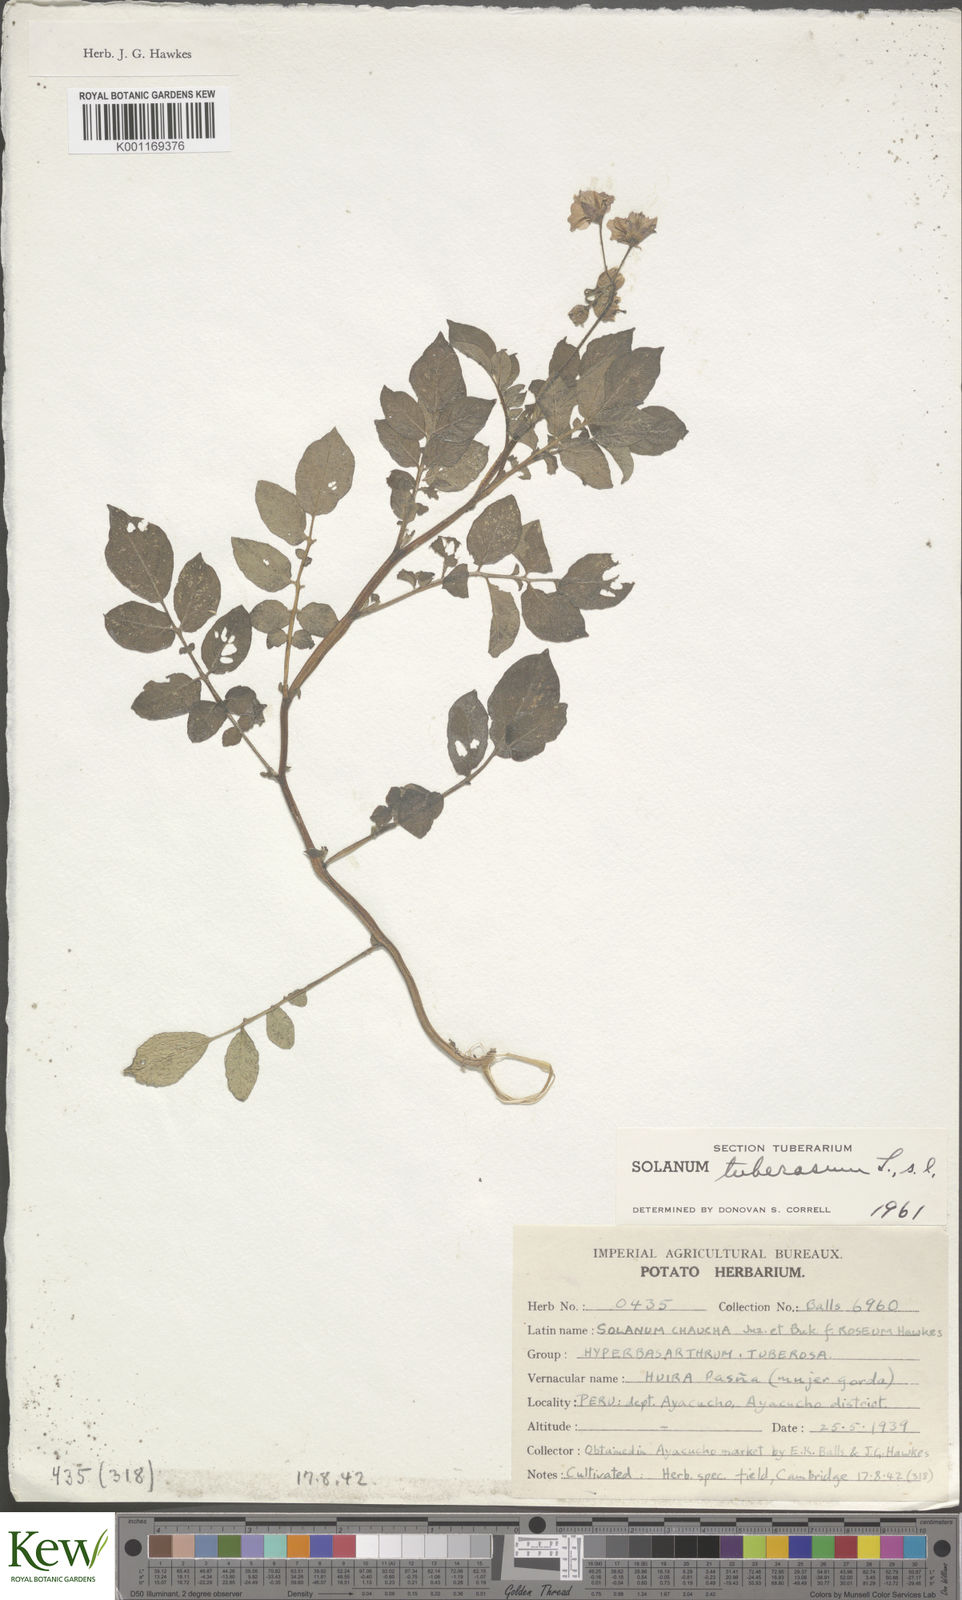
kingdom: Plantae
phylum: Tracheophyta
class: Magnoliopsida
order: Solanales
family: Solanaceae
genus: Solanum
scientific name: Solanum chaucha
